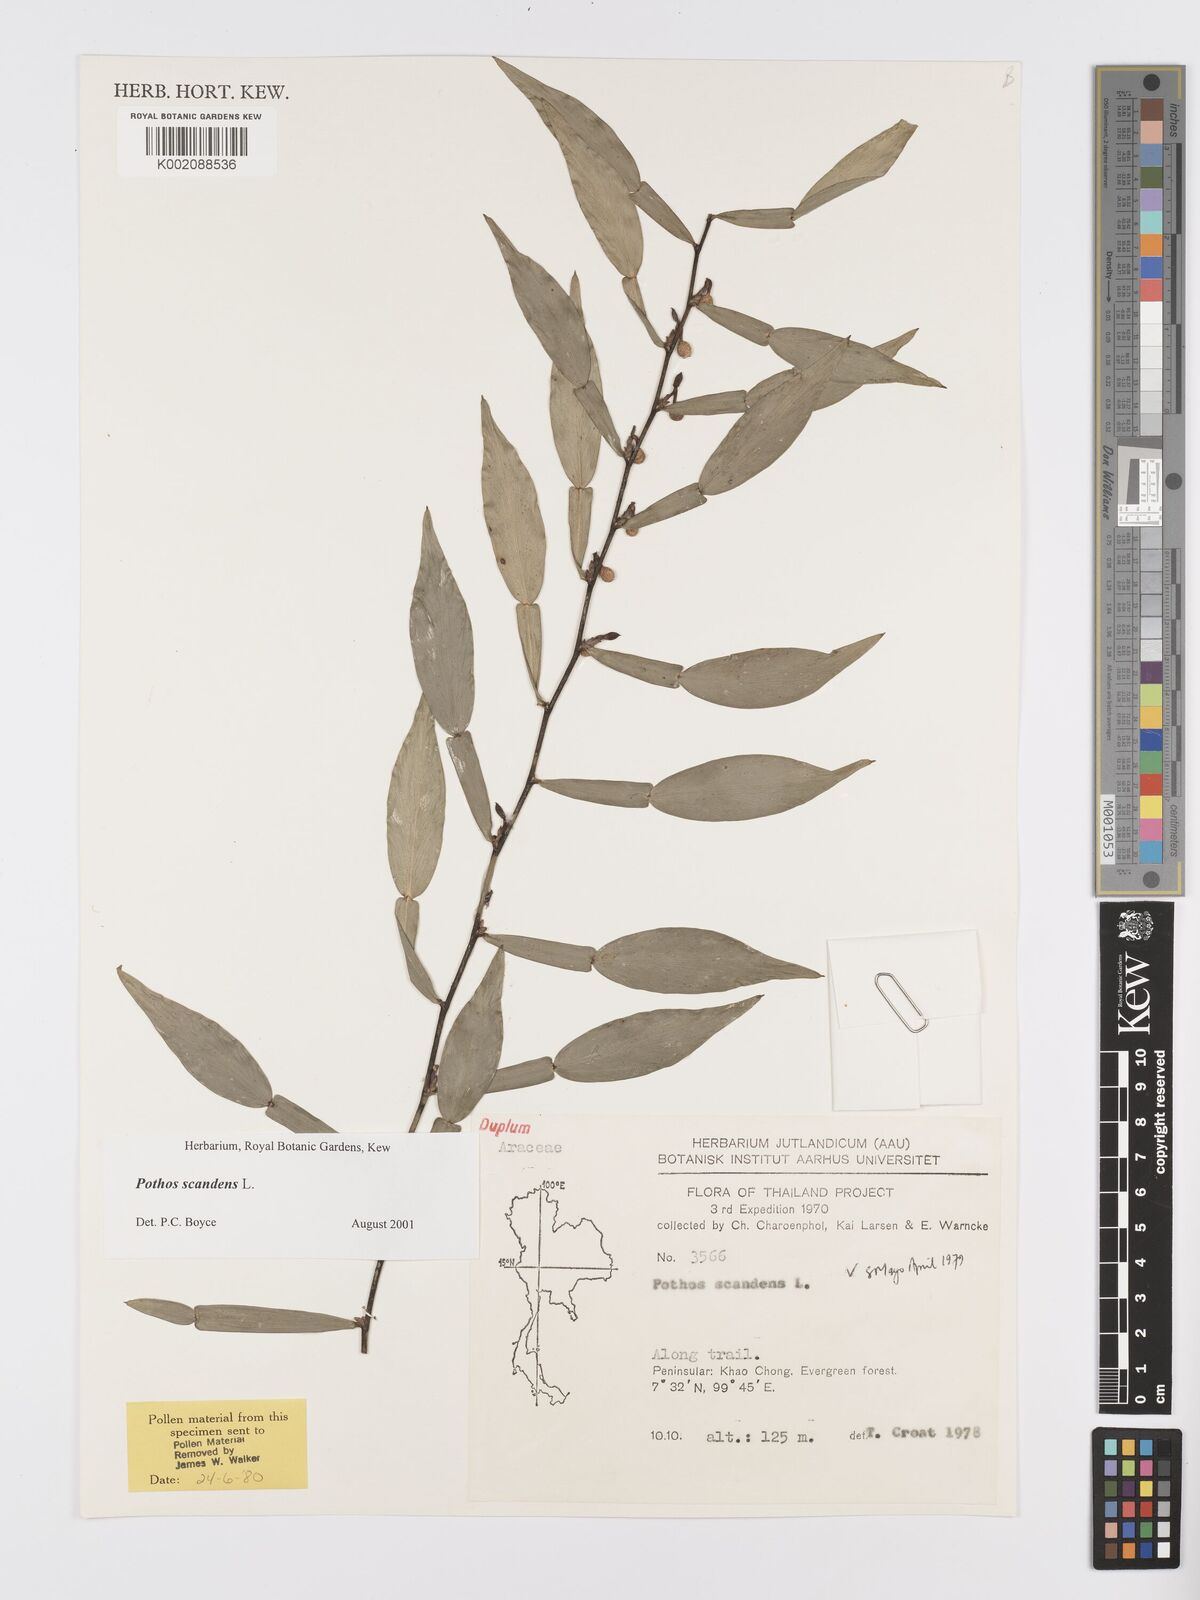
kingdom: Plantae
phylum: Tracheophyta
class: Liliopsida
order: Alismatales
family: Araceae
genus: Pothos
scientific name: Pothos scandens
